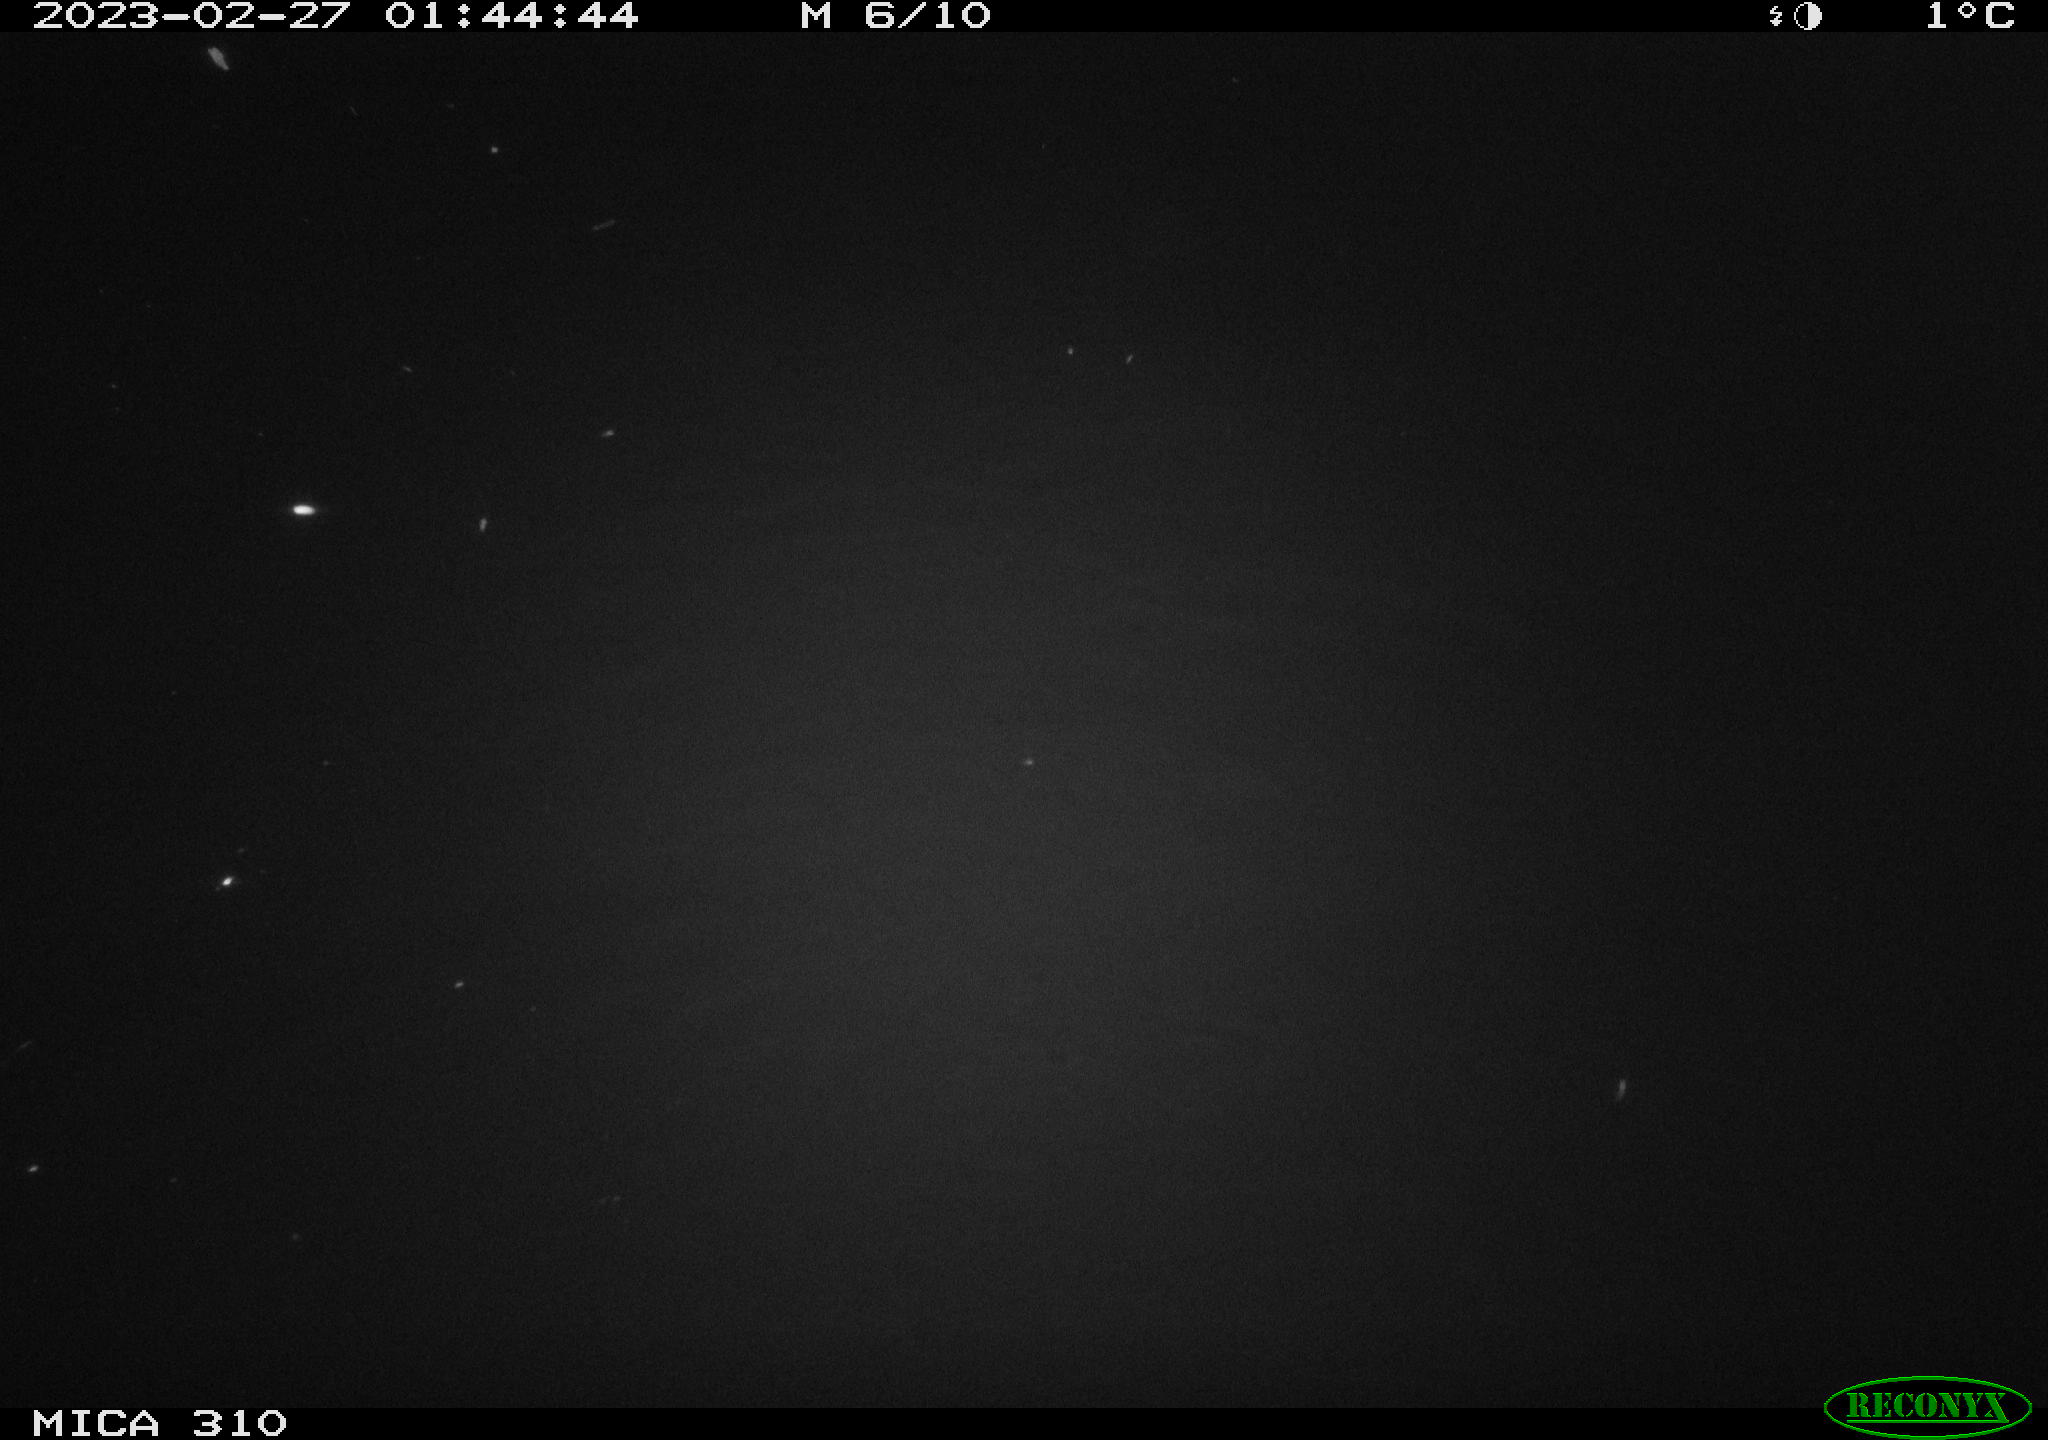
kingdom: Animalia
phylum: Chordata
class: Mammalia
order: Rodentia
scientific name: Rodentia
